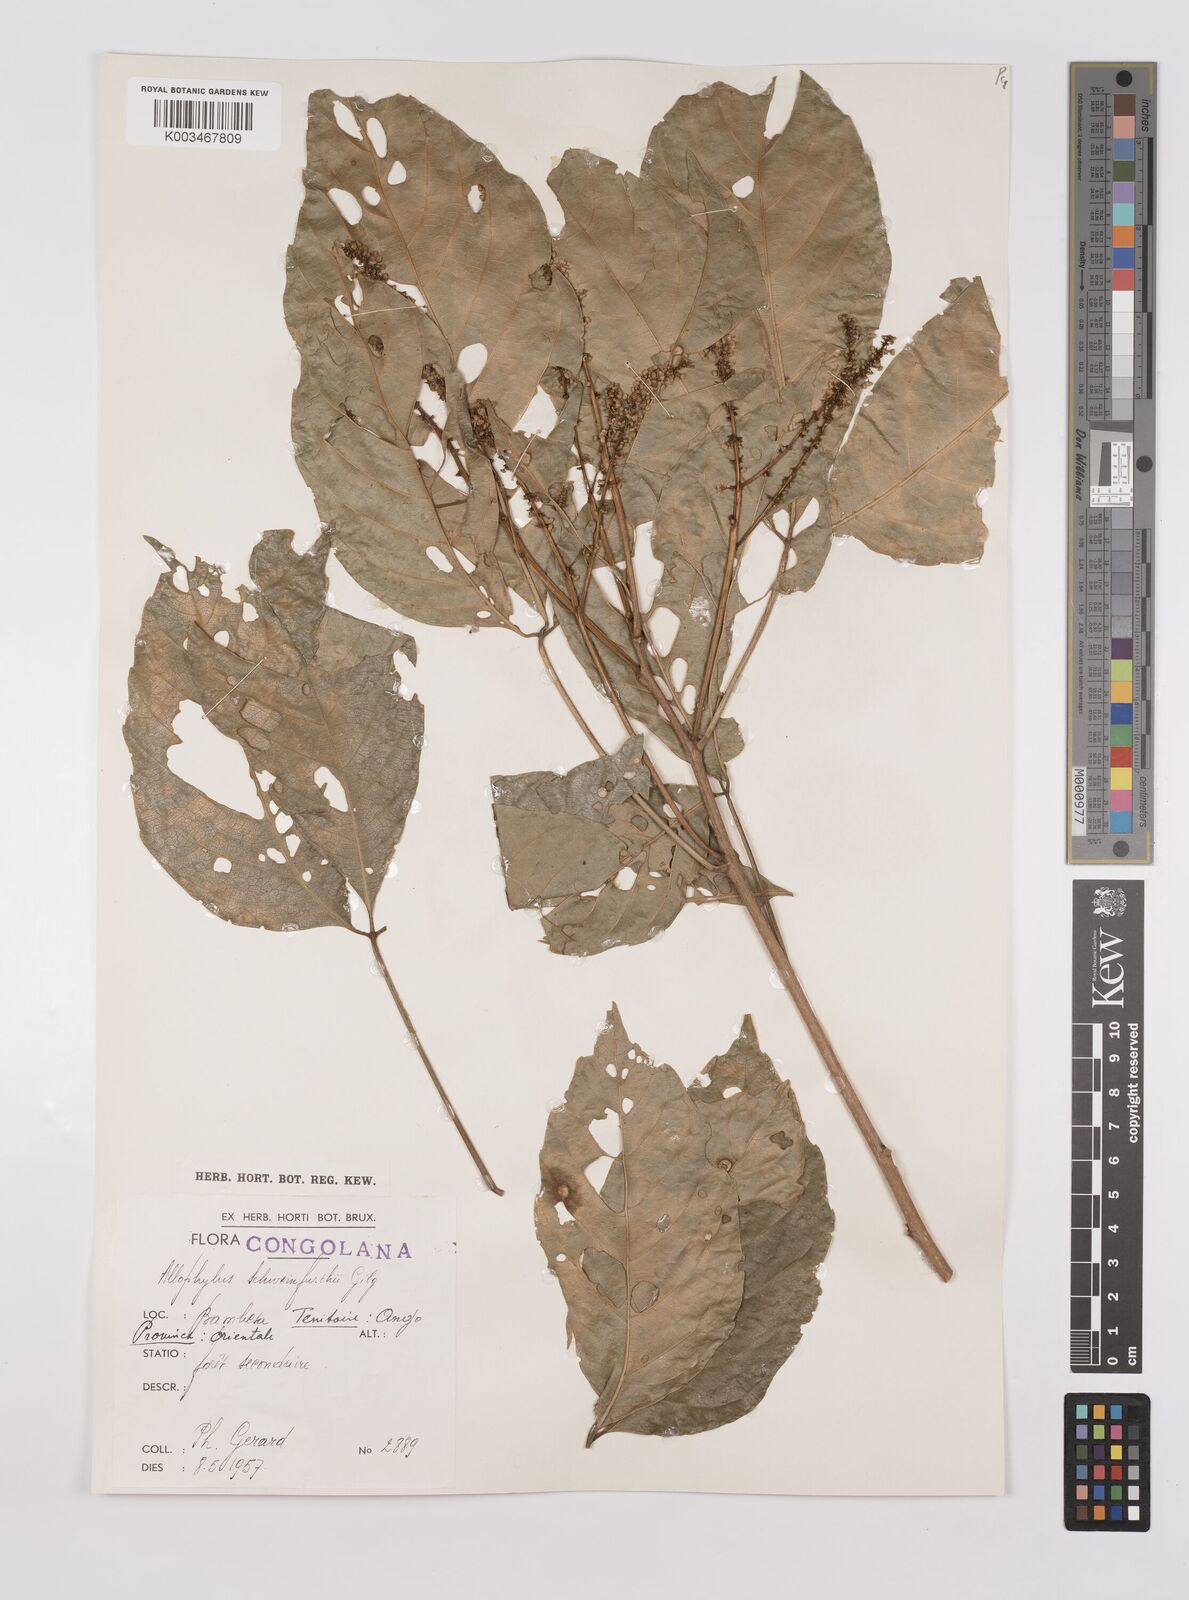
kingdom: Plantae
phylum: Tracheophyta
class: Magnoliopsida
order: Sapindales
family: Sapindaceae
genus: Allophylus
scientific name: Allophylus africanus
